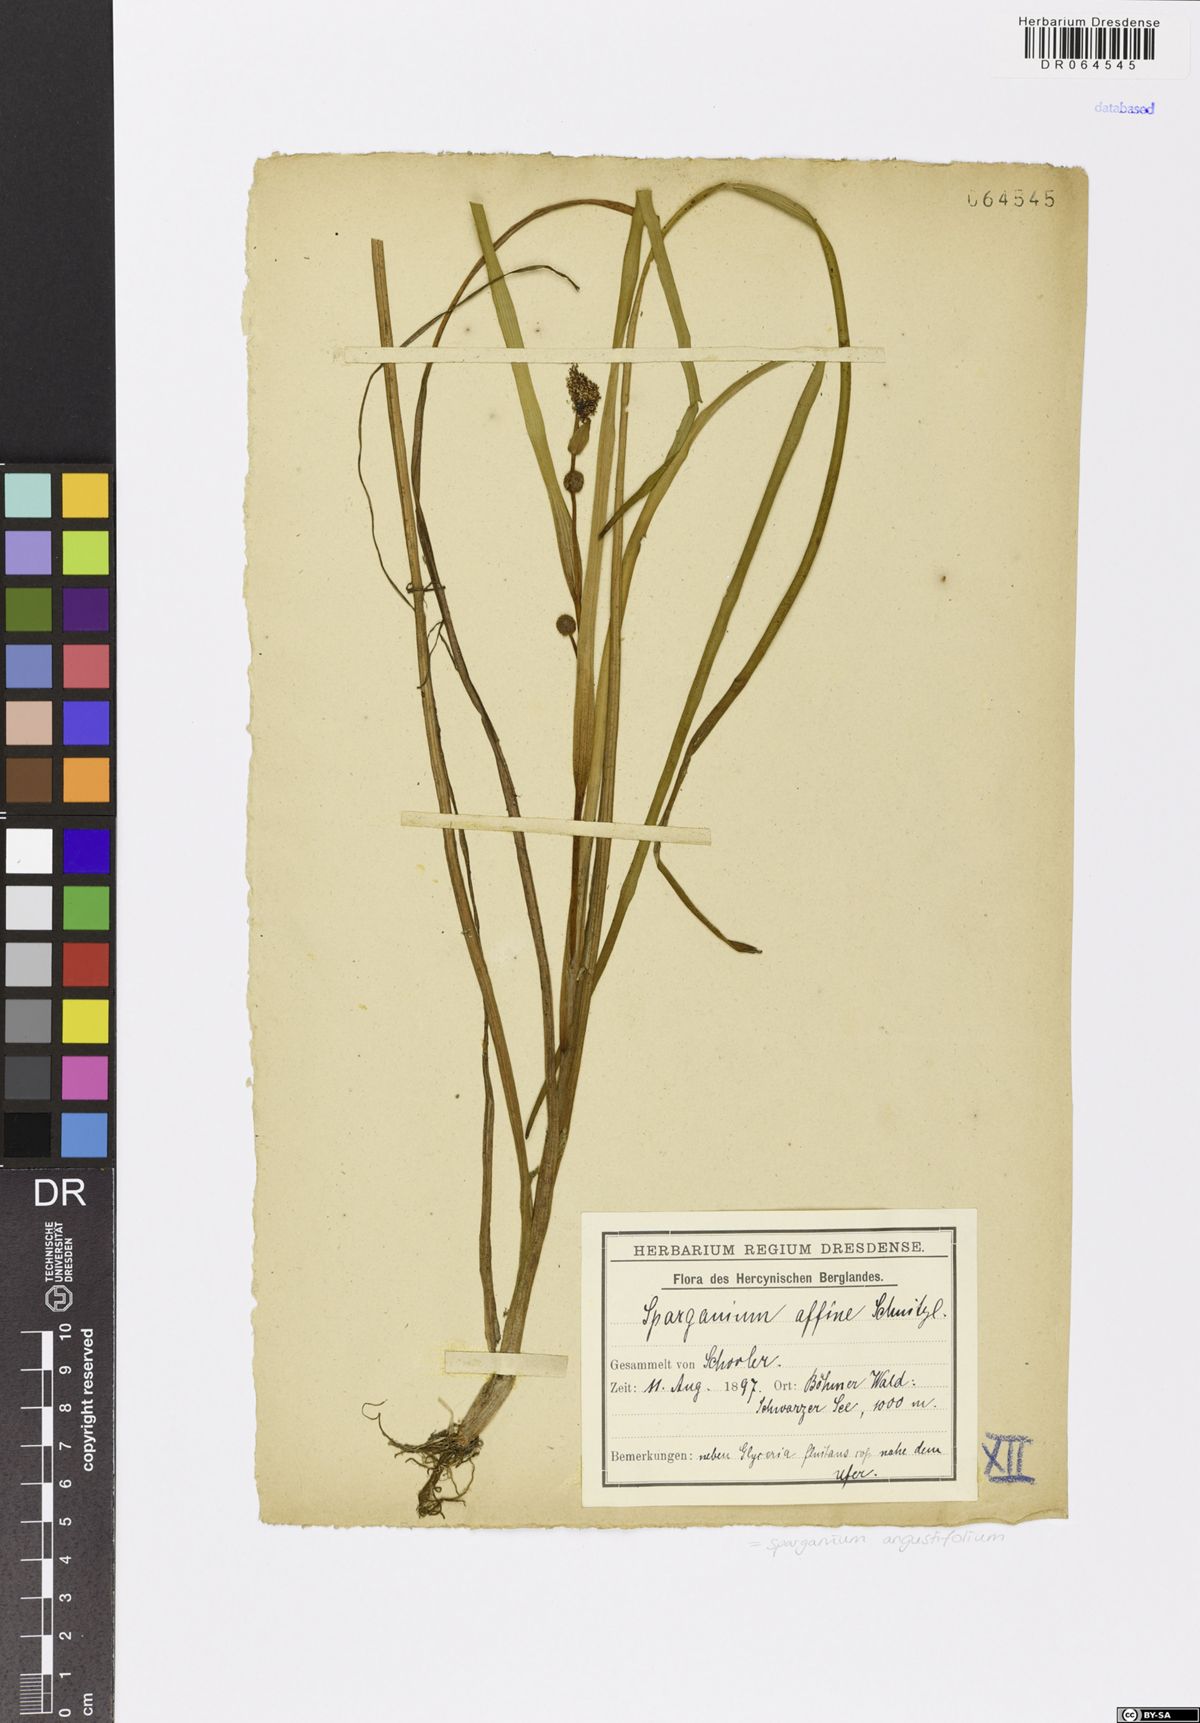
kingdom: Plantae
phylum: Tracheophyta
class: Liliopsida
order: Poales
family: Typhaceae
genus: Sparganium
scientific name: Sparganium angustifolium
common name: Floating bur-reed
